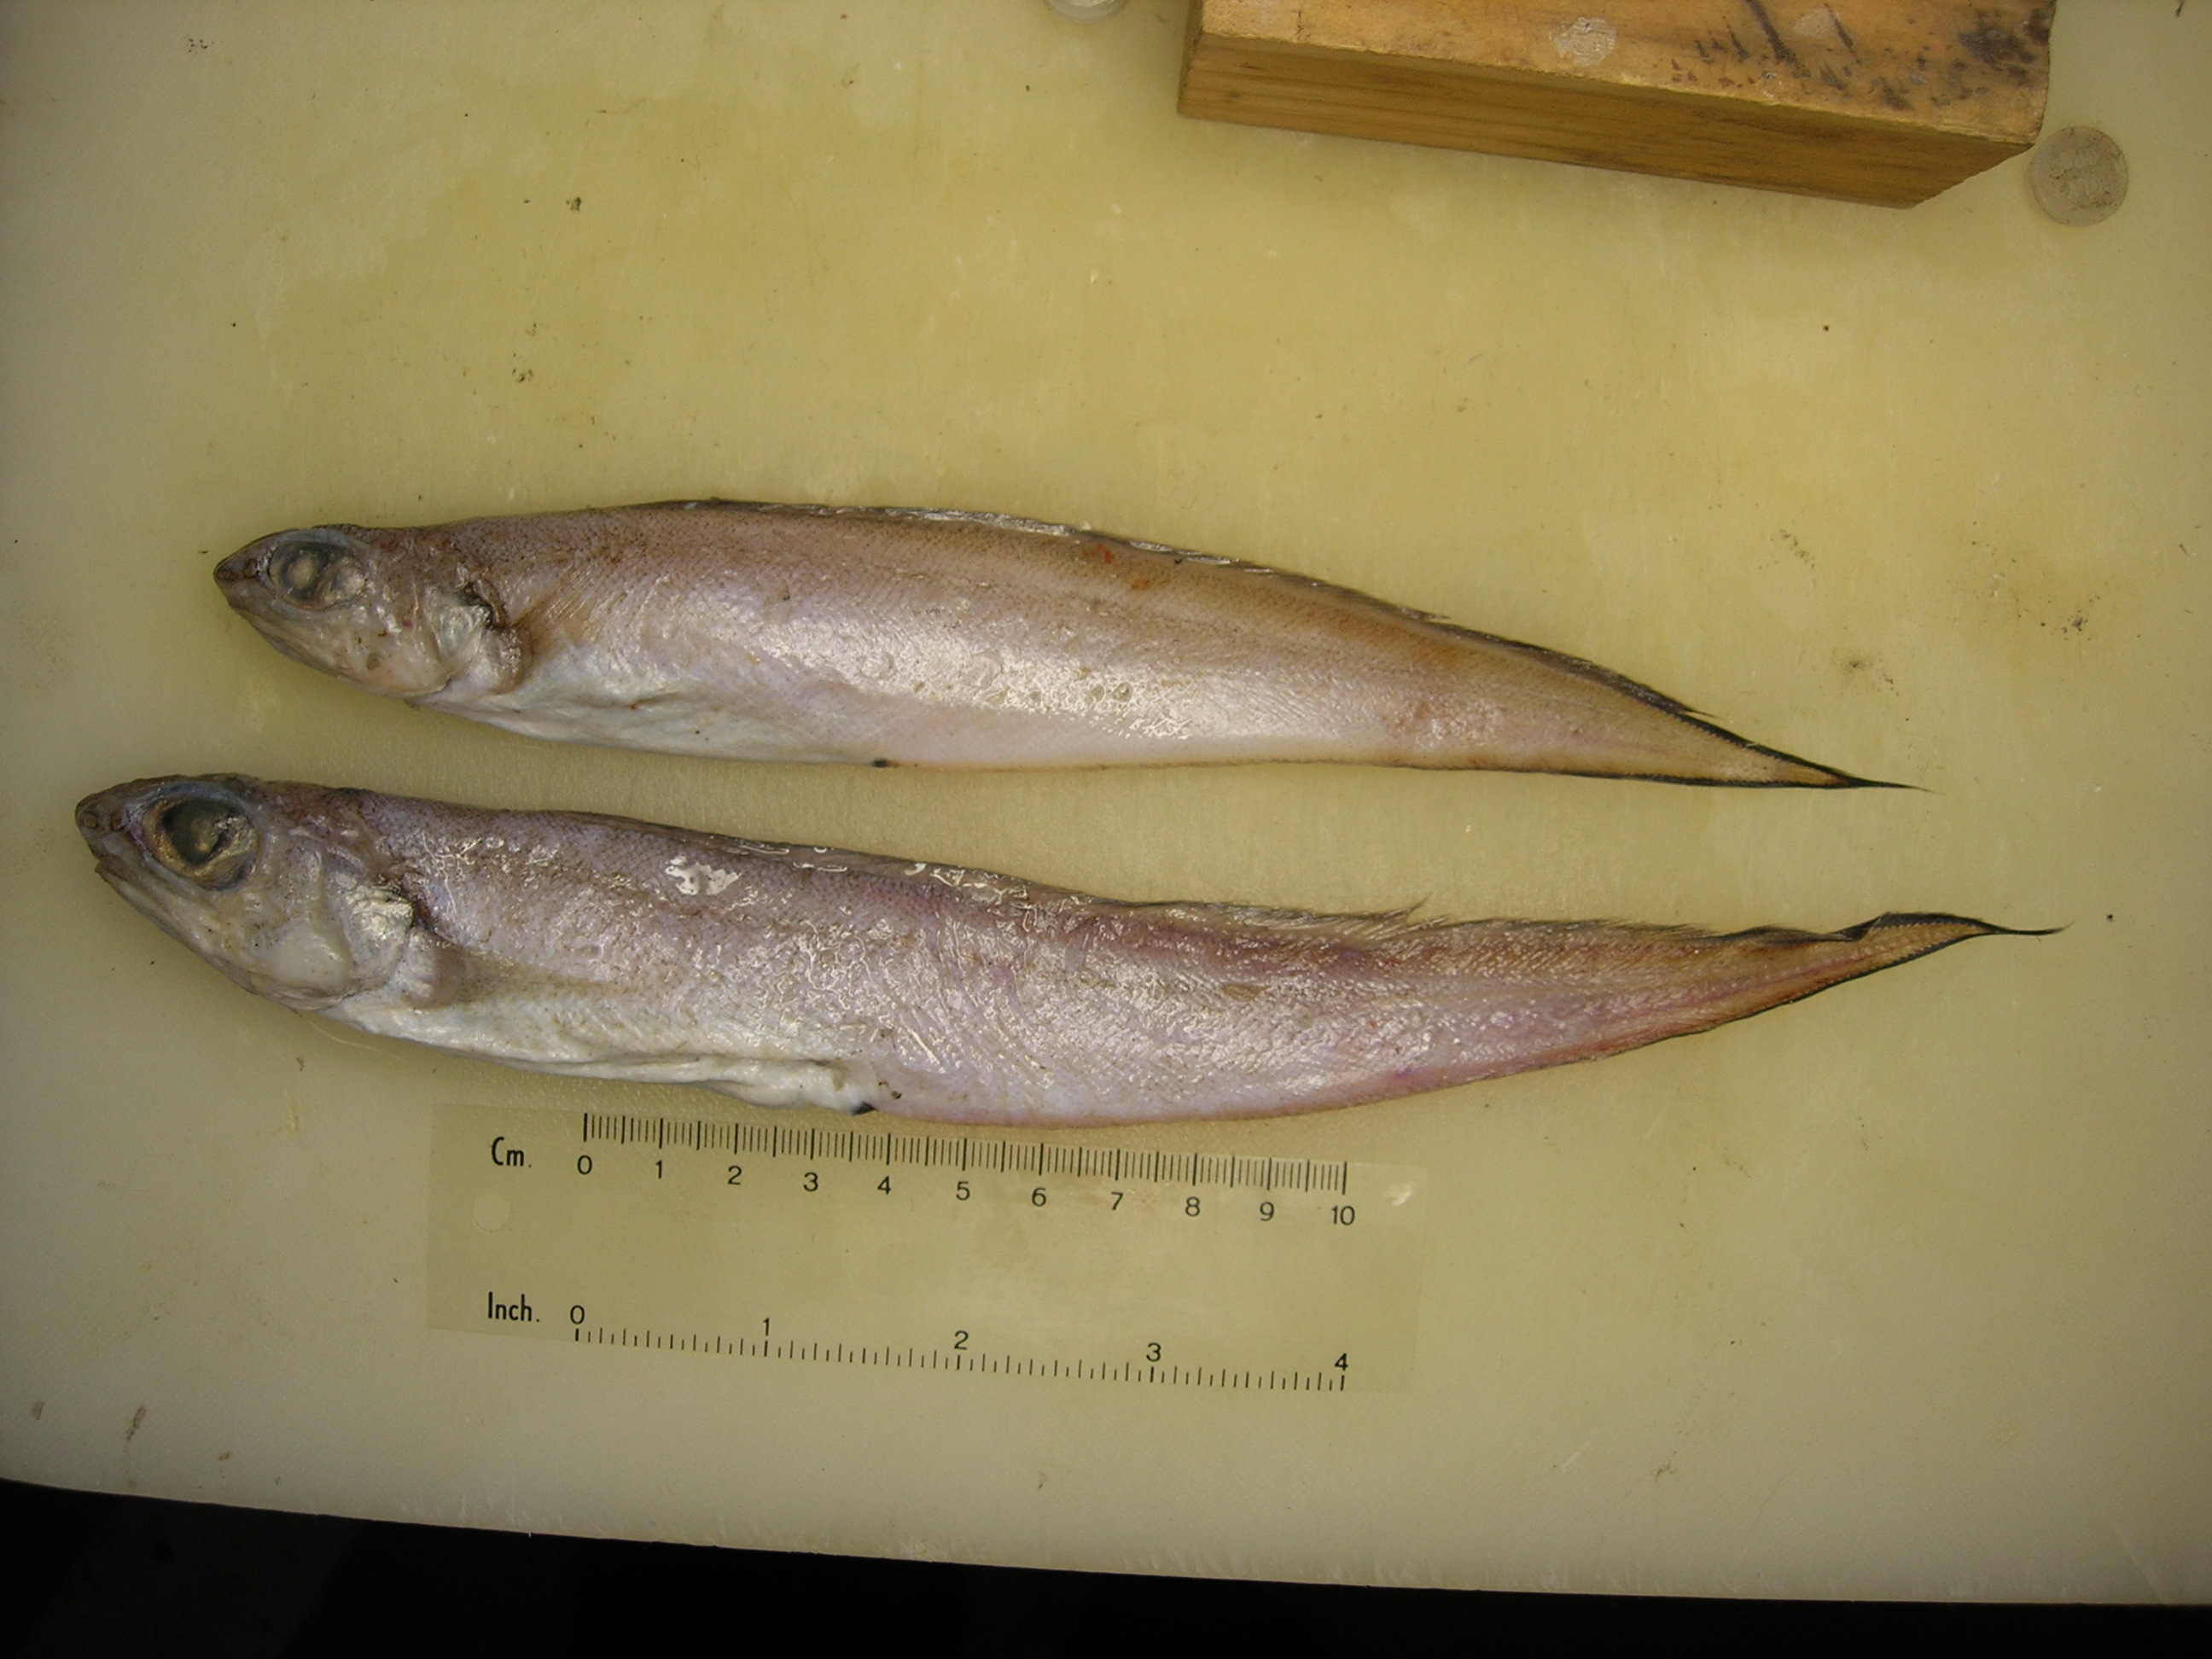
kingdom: Animalia
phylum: Chordata
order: Ophidiiformes
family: Ophidiidae
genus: Selachophidium
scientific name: Selachophidium guentheri
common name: Barbed brotula
